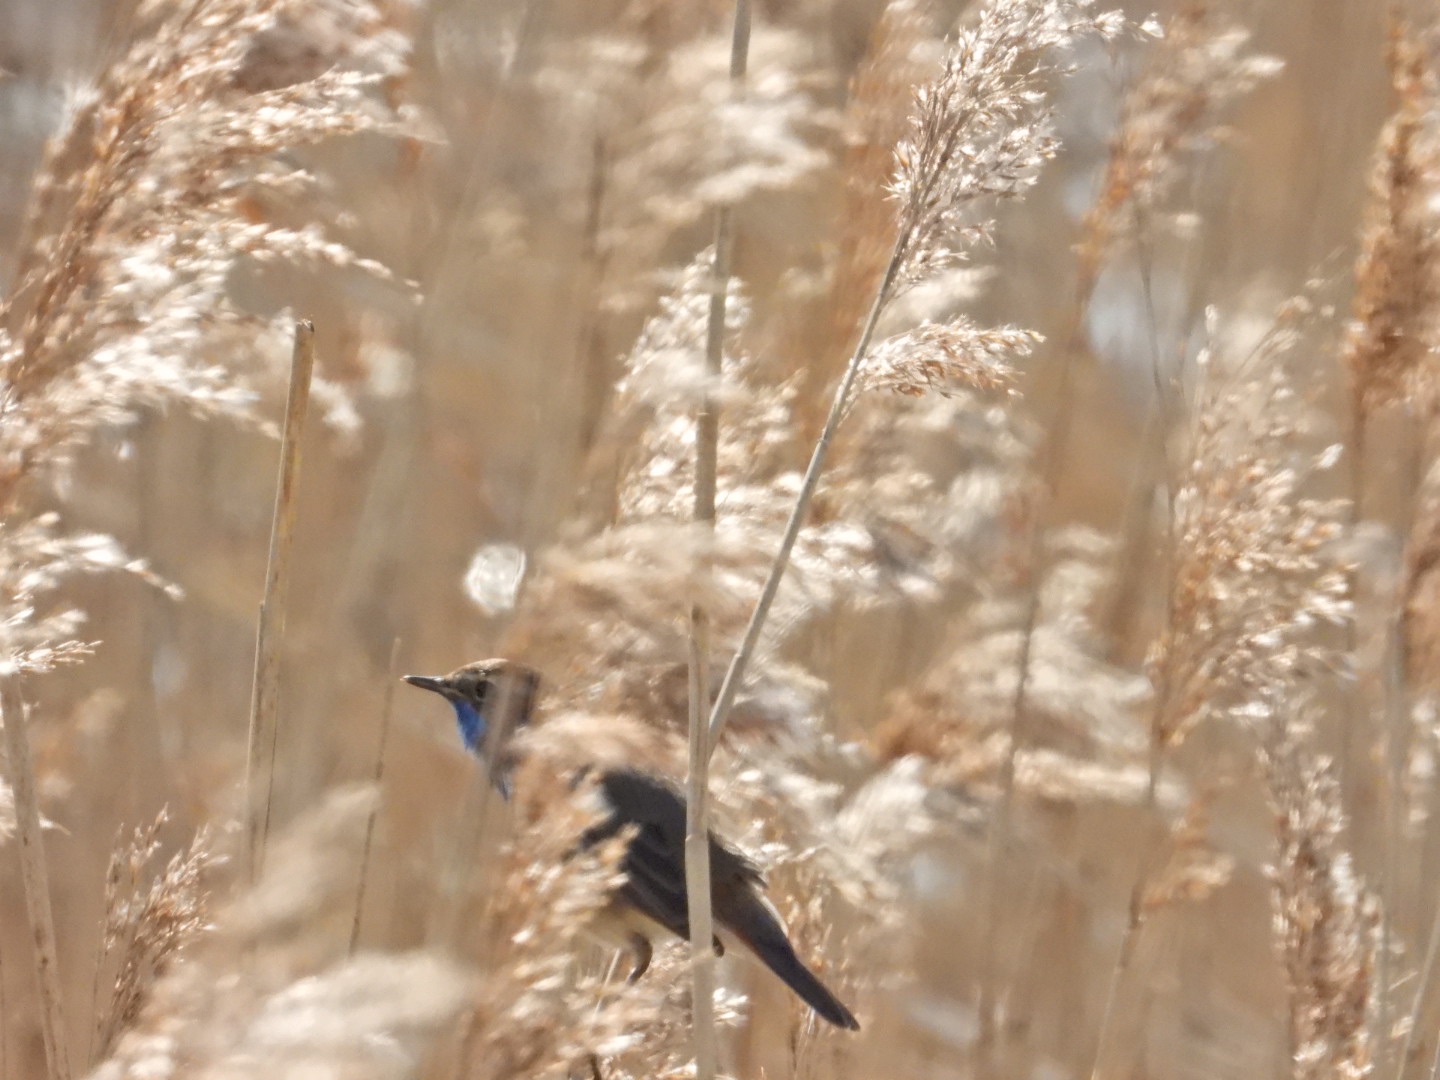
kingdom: Animalia
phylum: Chordata
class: Aves
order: Passeriformes
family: Muscicapidae
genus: Luscinia
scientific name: Luscinia svecica
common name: Blåhals
